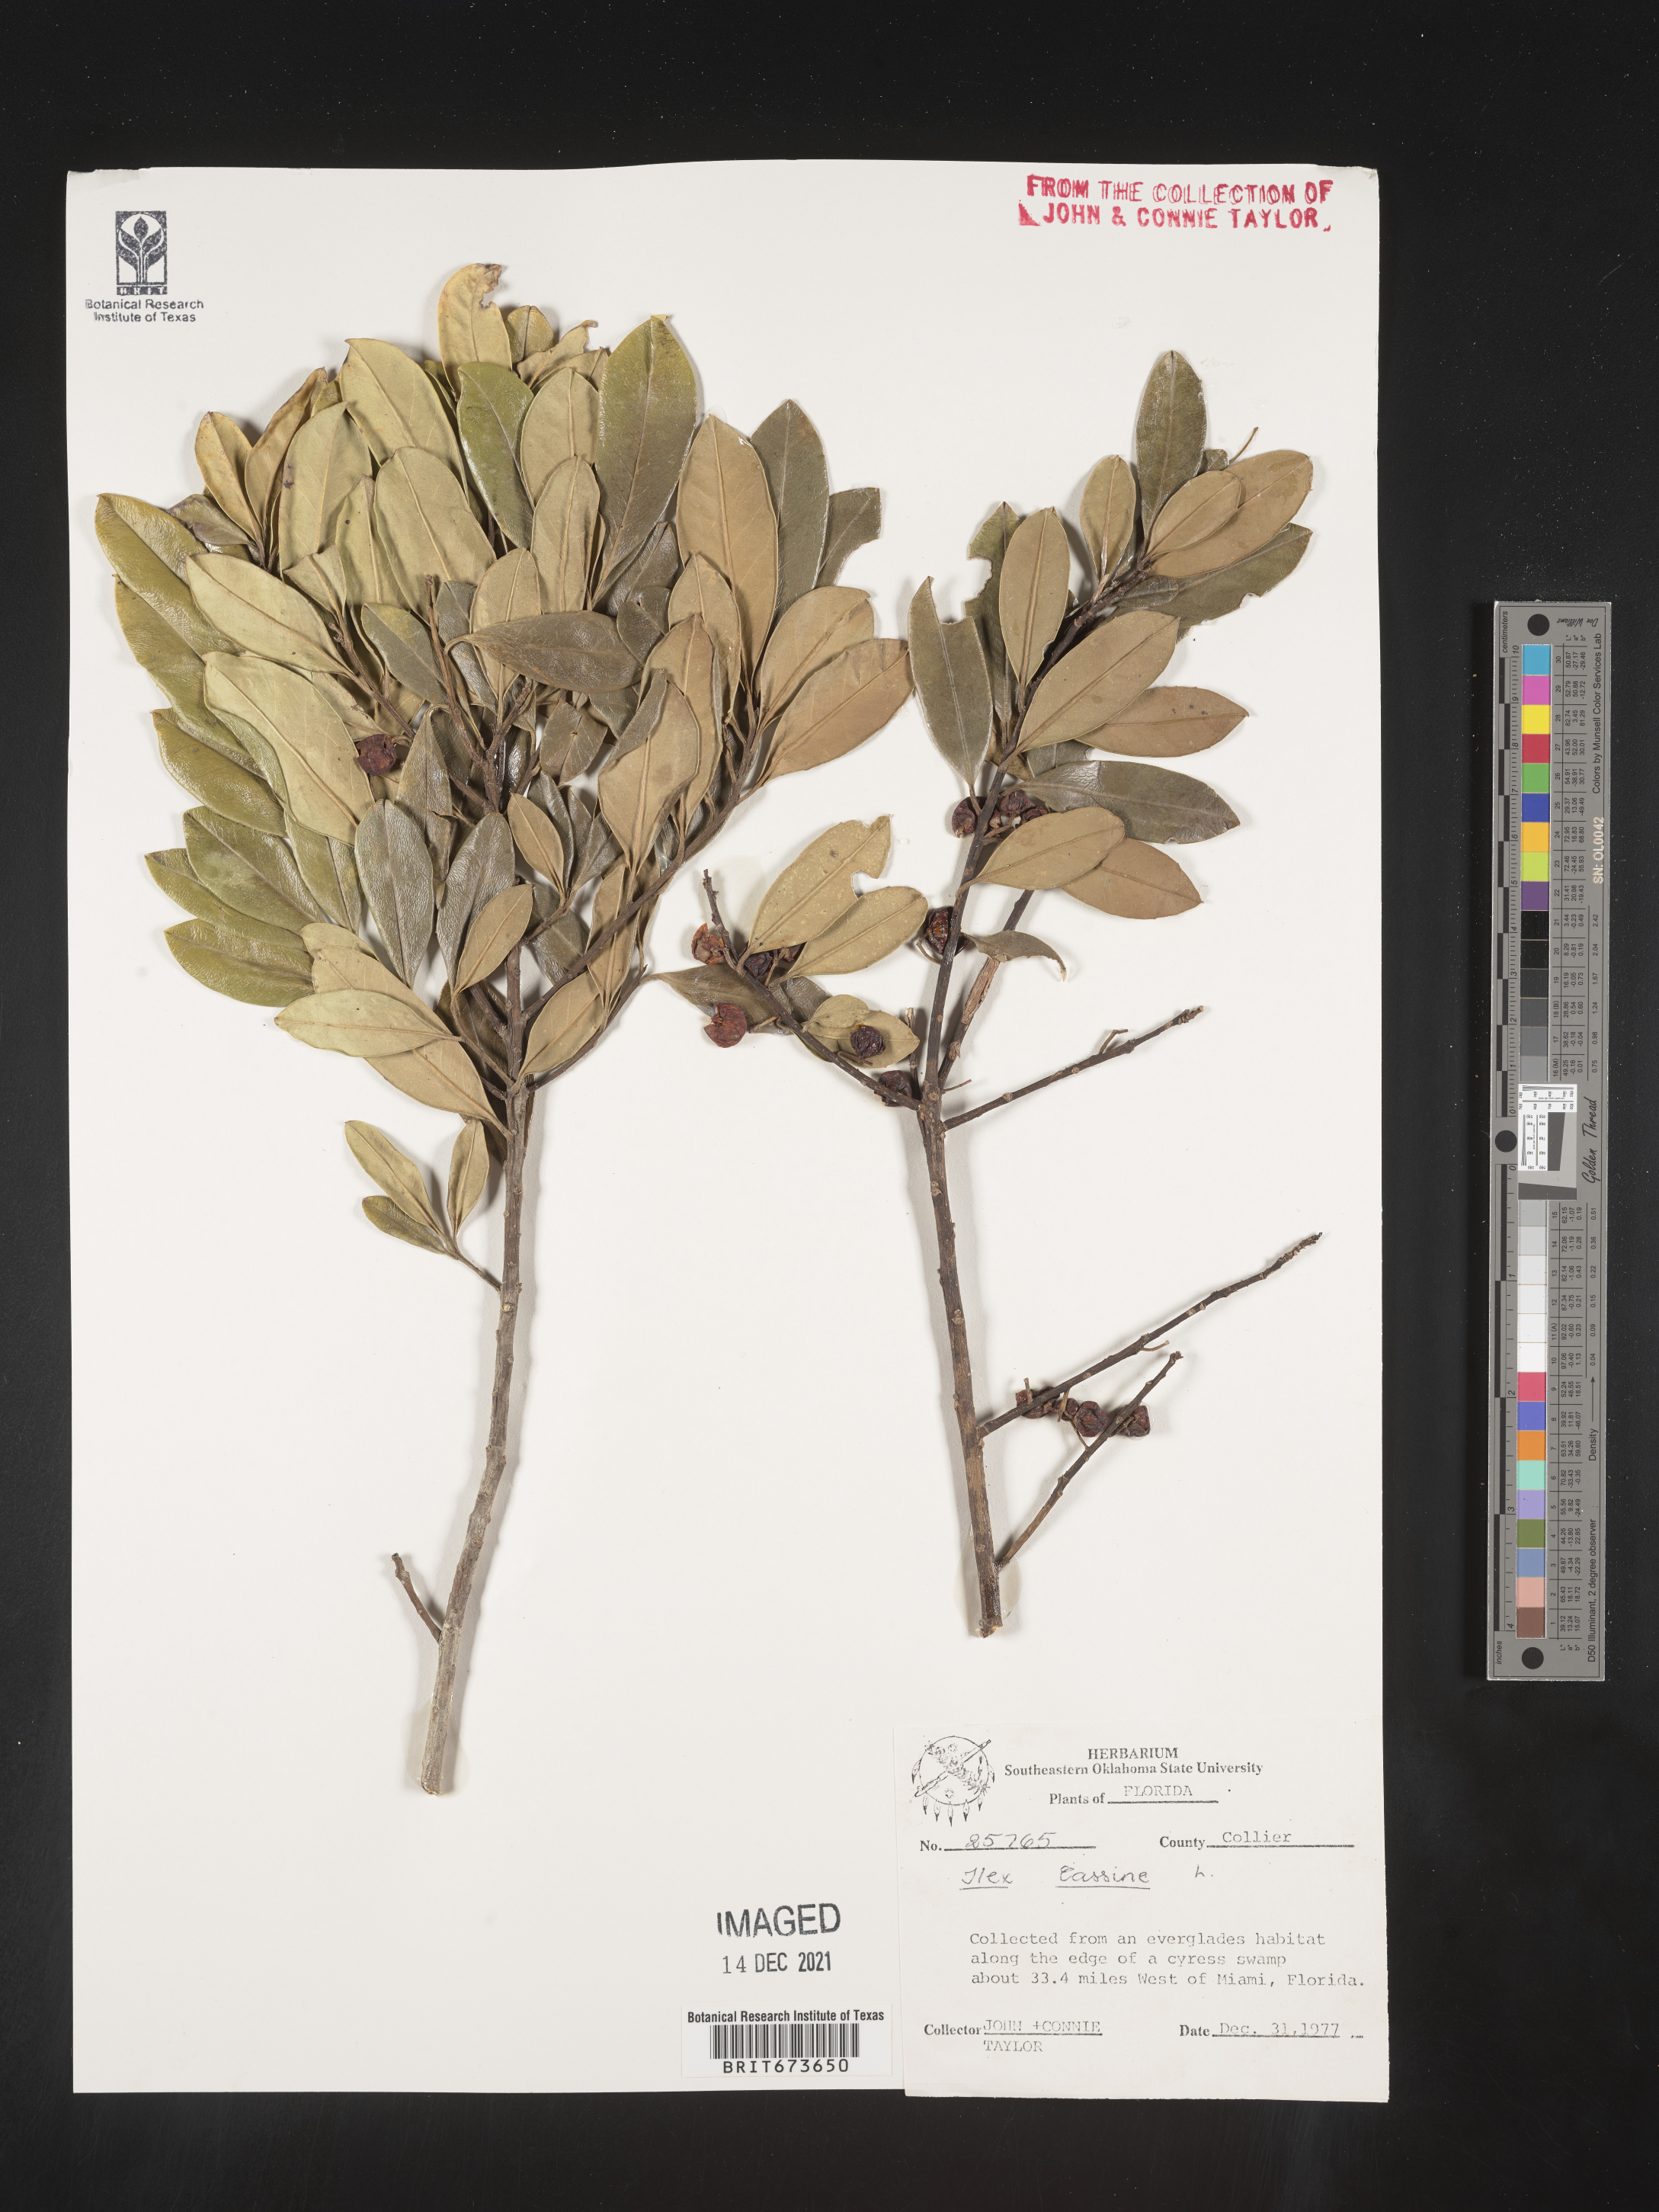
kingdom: Plantae
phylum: Tracheophyta
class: Magnoliopsida
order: Aquifoliales
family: Aquifoliaceae
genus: Ilex
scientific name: Ilex cassine
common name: Dahoon
